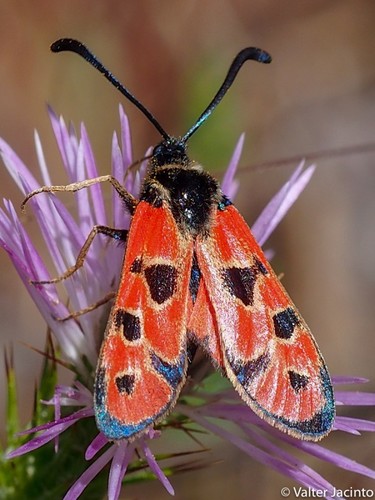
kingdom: Animalia
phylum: Arthropoda
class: Insecta
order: Lepidoptera
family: Zygaenidae
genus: Zygaena
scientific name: Zygaena hilaris
